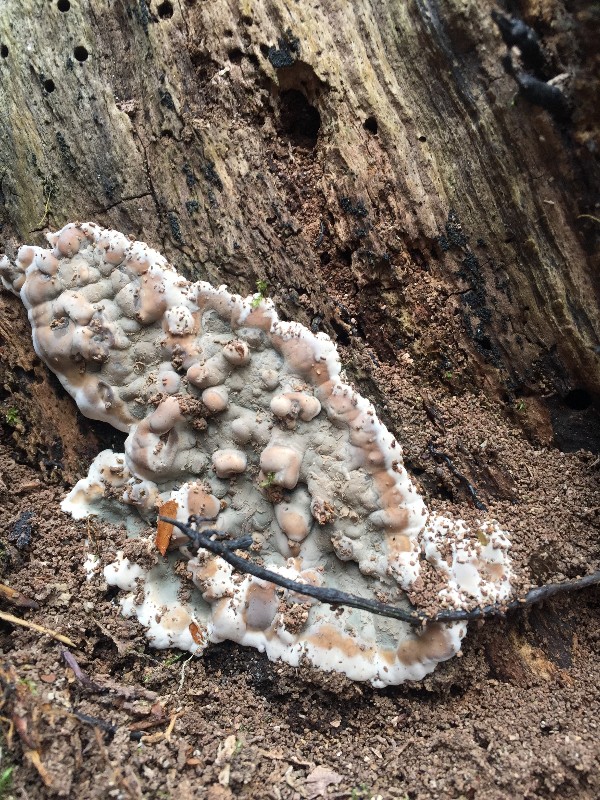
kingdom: Fungi
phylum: Ascomycota
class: Sordariomycetes
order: Xylariales
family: Xylariaceae
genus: Kretzschmaria
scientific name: Kretzschmaria deusta
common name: stor kulsvamp
